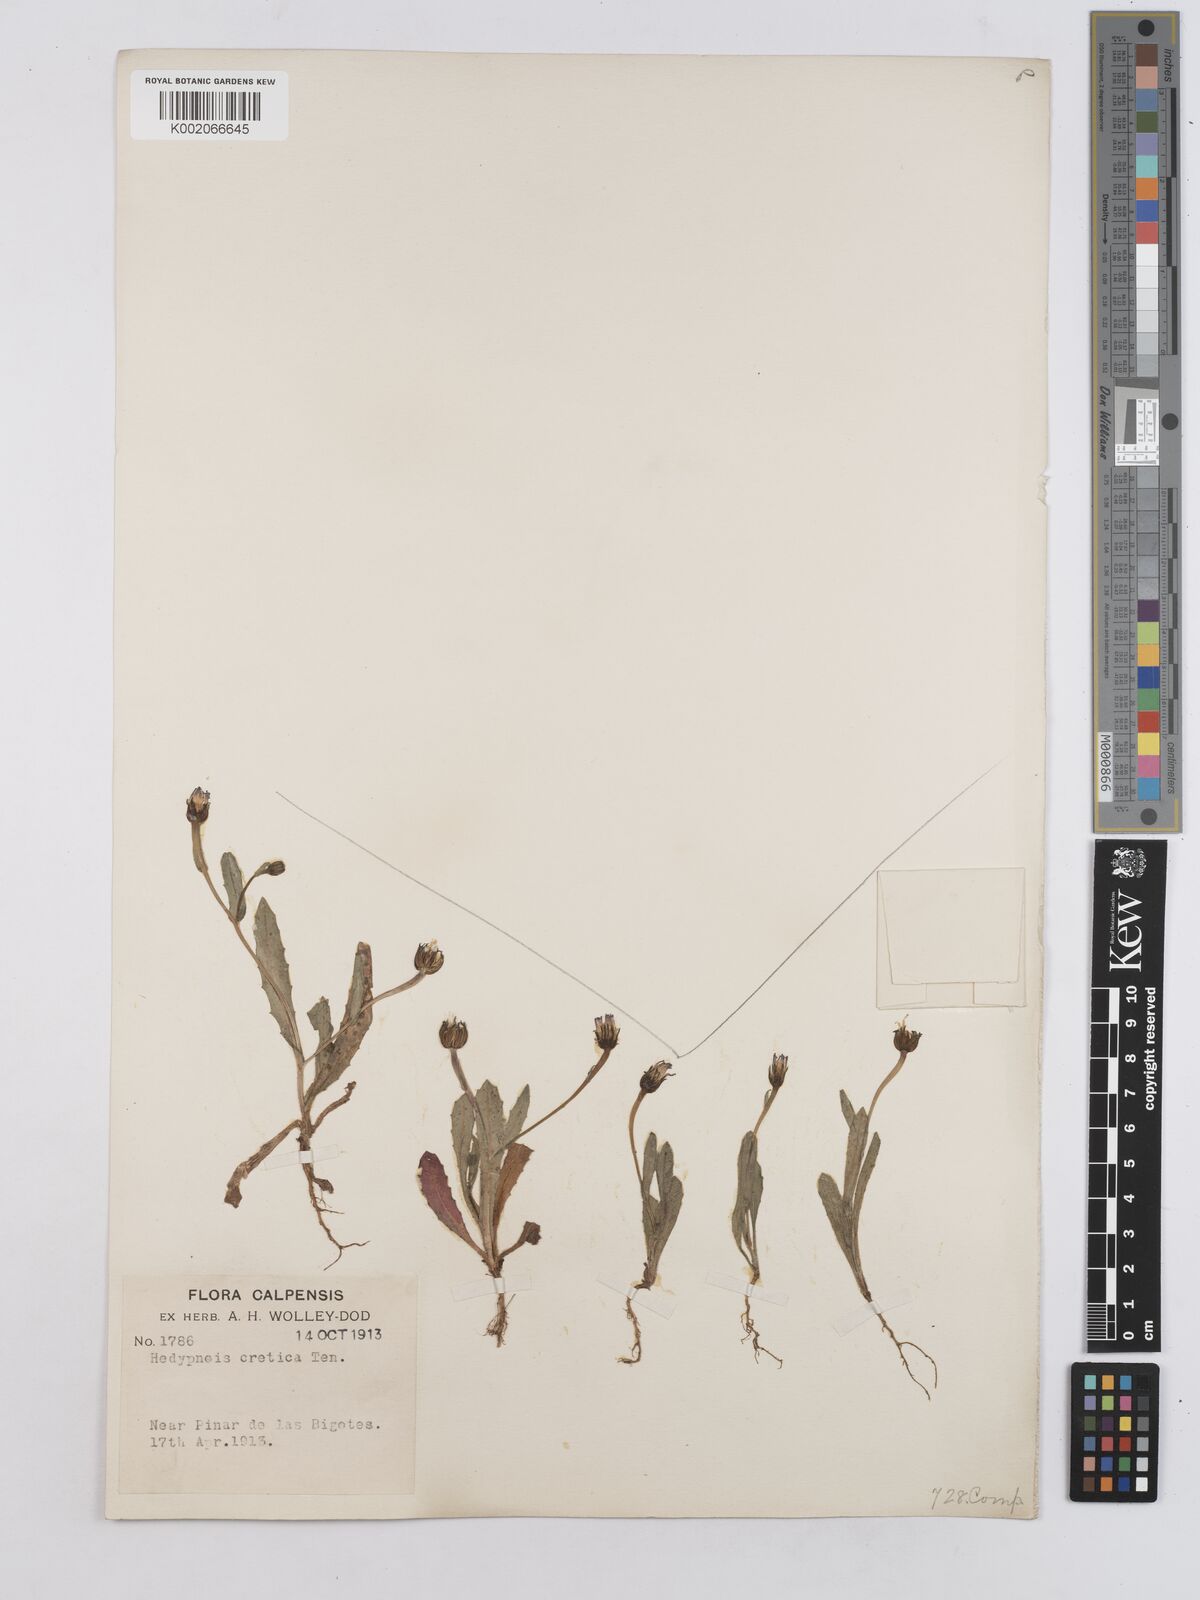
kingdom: Plantae
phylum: Tracheophyta
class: Magnoliopsida
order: Asterales
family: Asteraceae
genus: Hedypnois
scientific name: Hedypnois rhagadioloides
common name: Cretan weed
